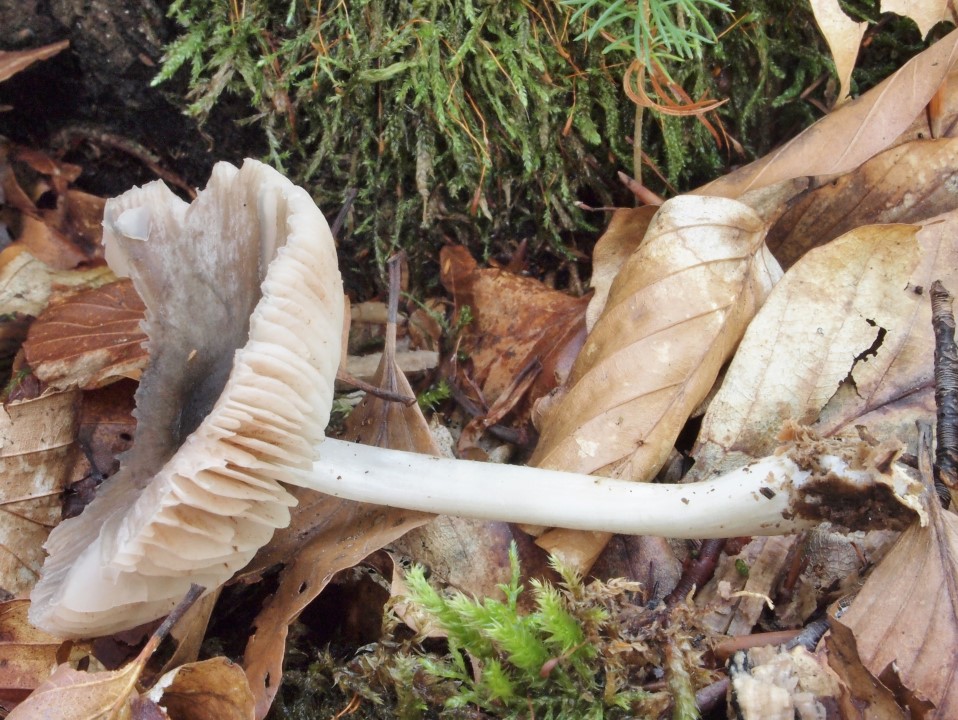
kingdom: Fungi
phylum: Basidiomycota
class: Agaricomycetes
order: Agaricales
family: Pluteaceae
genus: Pluteus
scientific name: Pluteus salicinus
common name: stiv skærmhat
